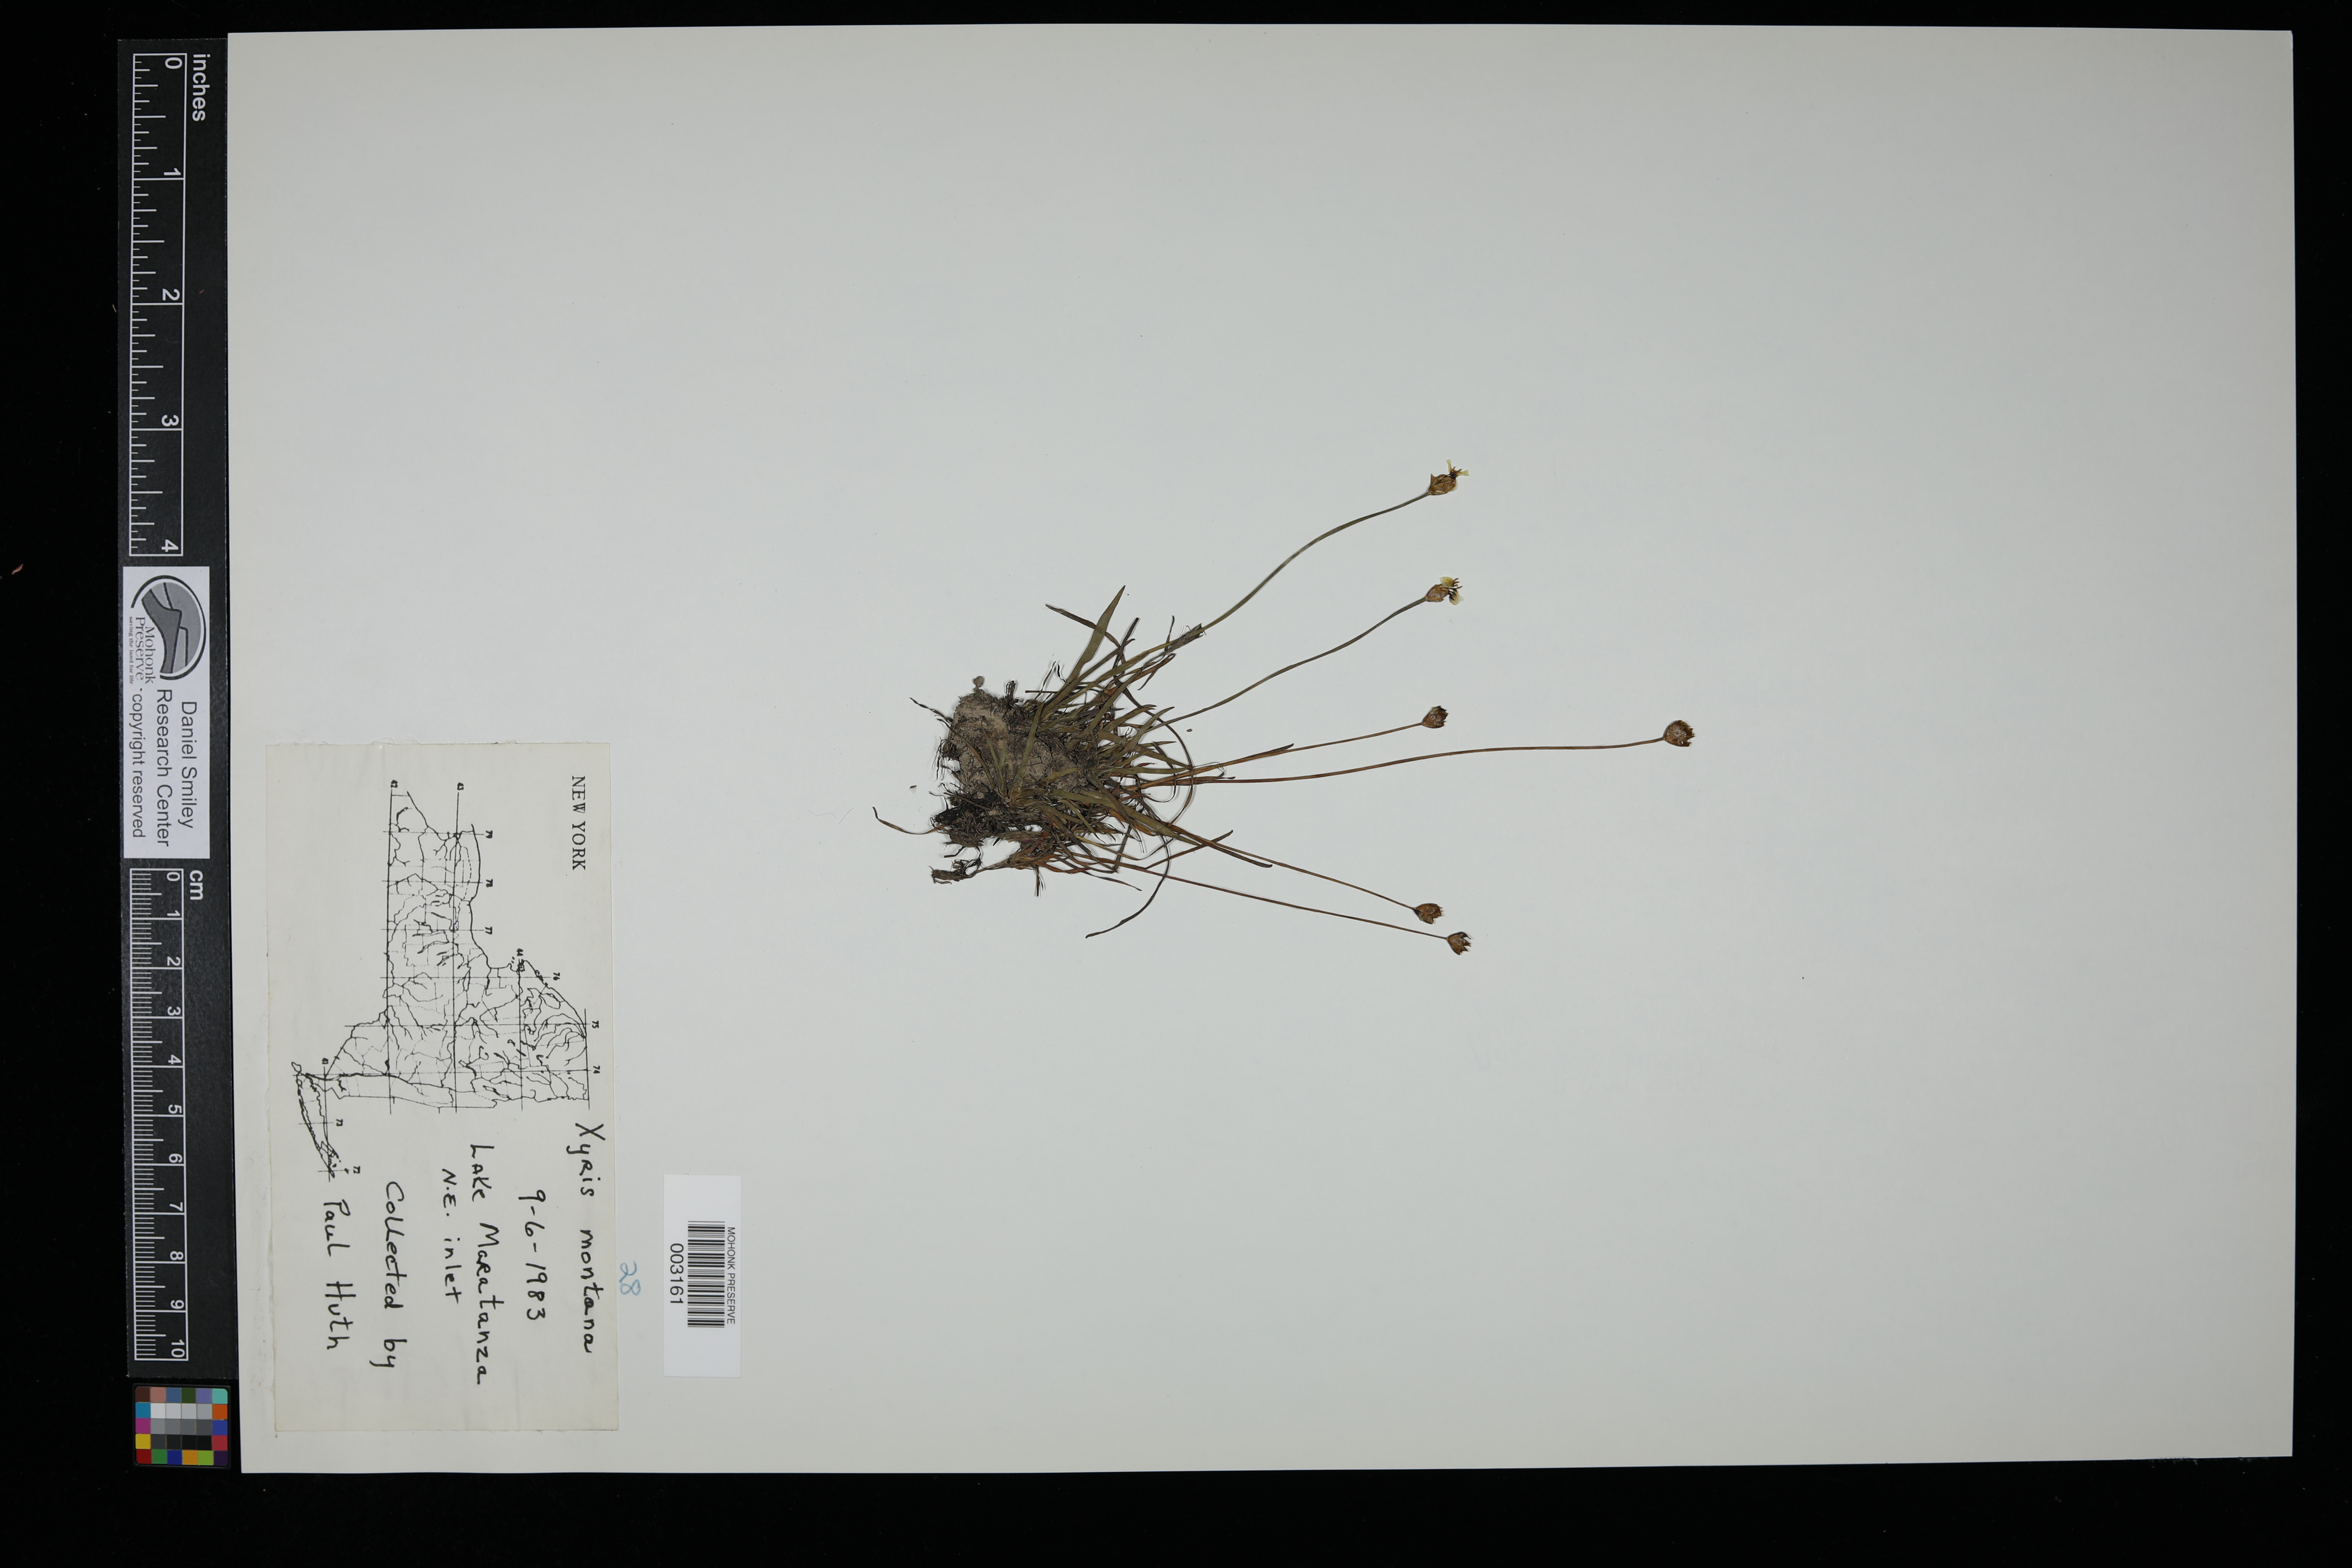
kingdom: Plantae
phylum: Tracheophyta
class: Liliopsida
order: Poales
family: Xyridaceae
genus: Xyris
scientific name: Xyris montana
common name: Northern yellow-eyed-grass
